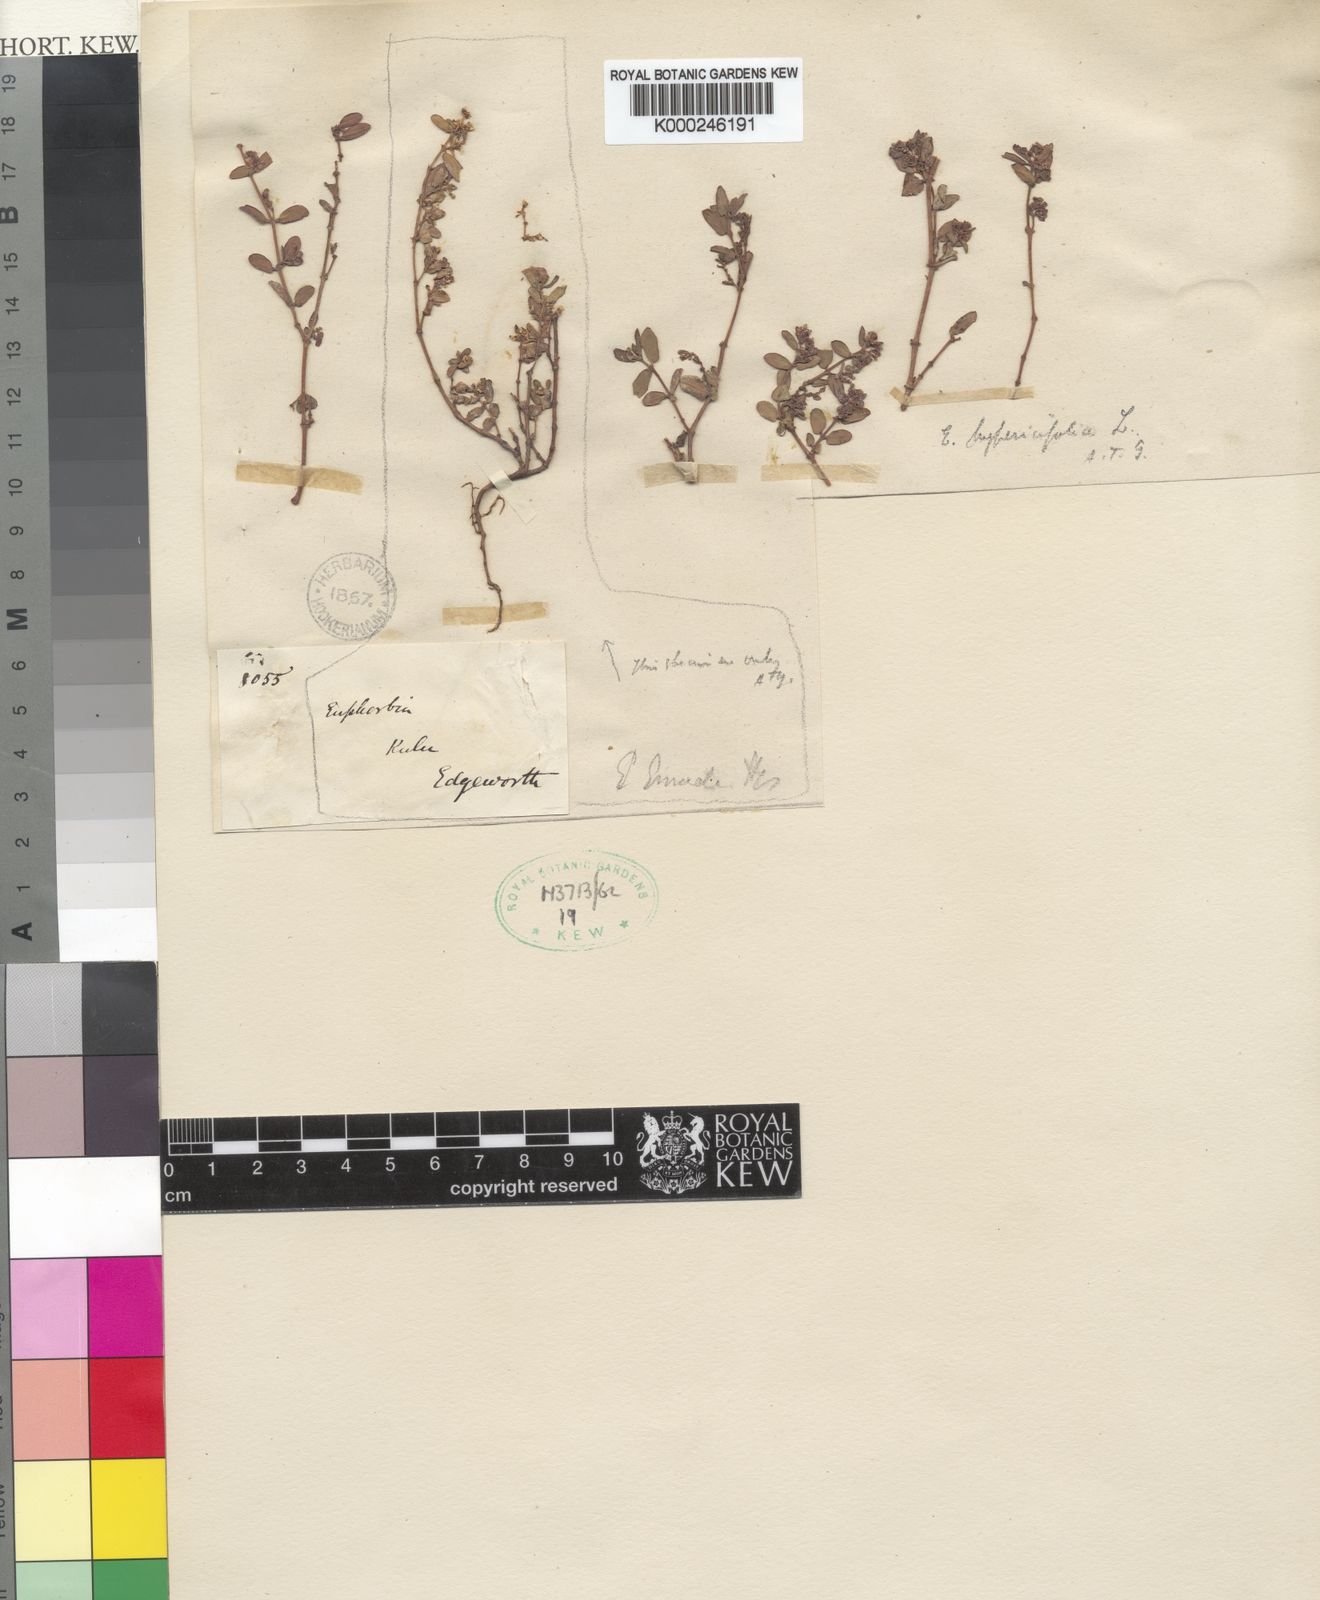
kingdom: Plantae
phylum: Tracheophyta
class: Magnoliopsida
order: Malpighiales
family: Euphorbiaceae
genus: Euphorbia
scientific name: Euphorbia hispida
